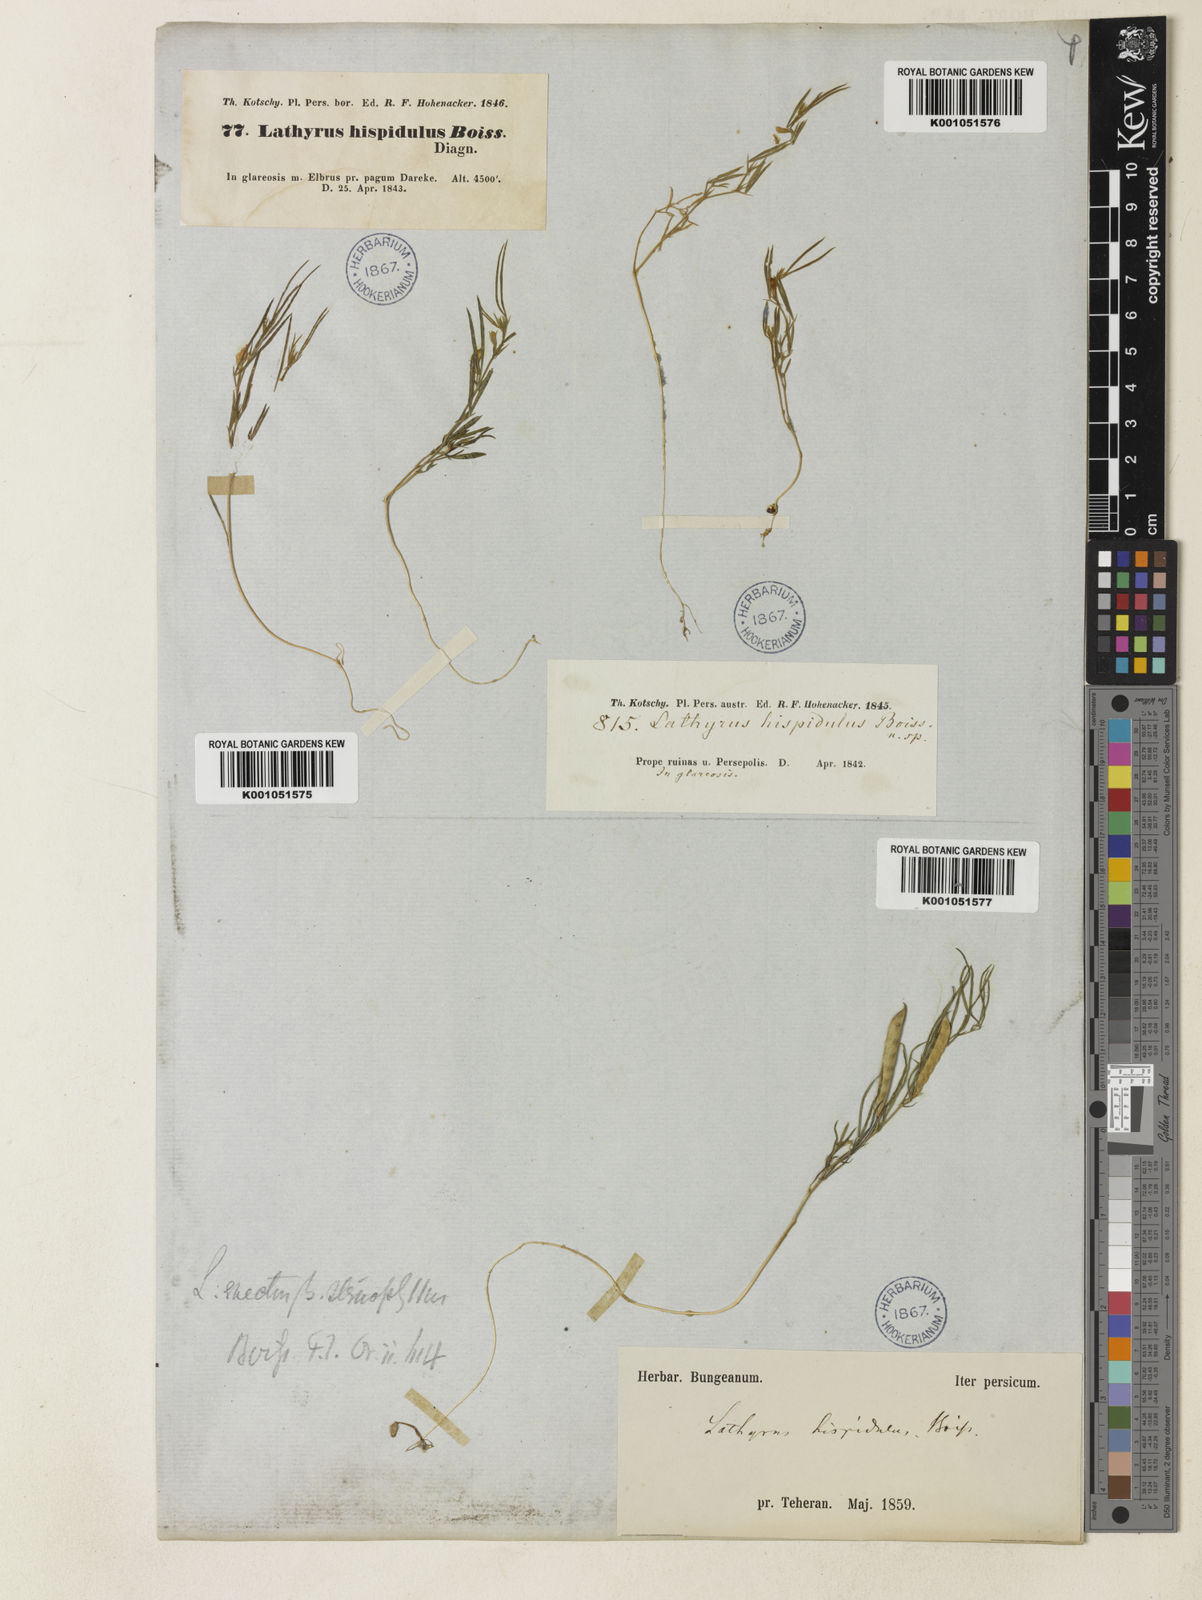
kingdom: Plantae
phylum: Tracheophyta
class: Magnoliopsida
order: Fabales
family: Fabaceae
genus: Lathyrus
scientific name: Lathyrus inconspicuus
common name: Inconspicuous pea
